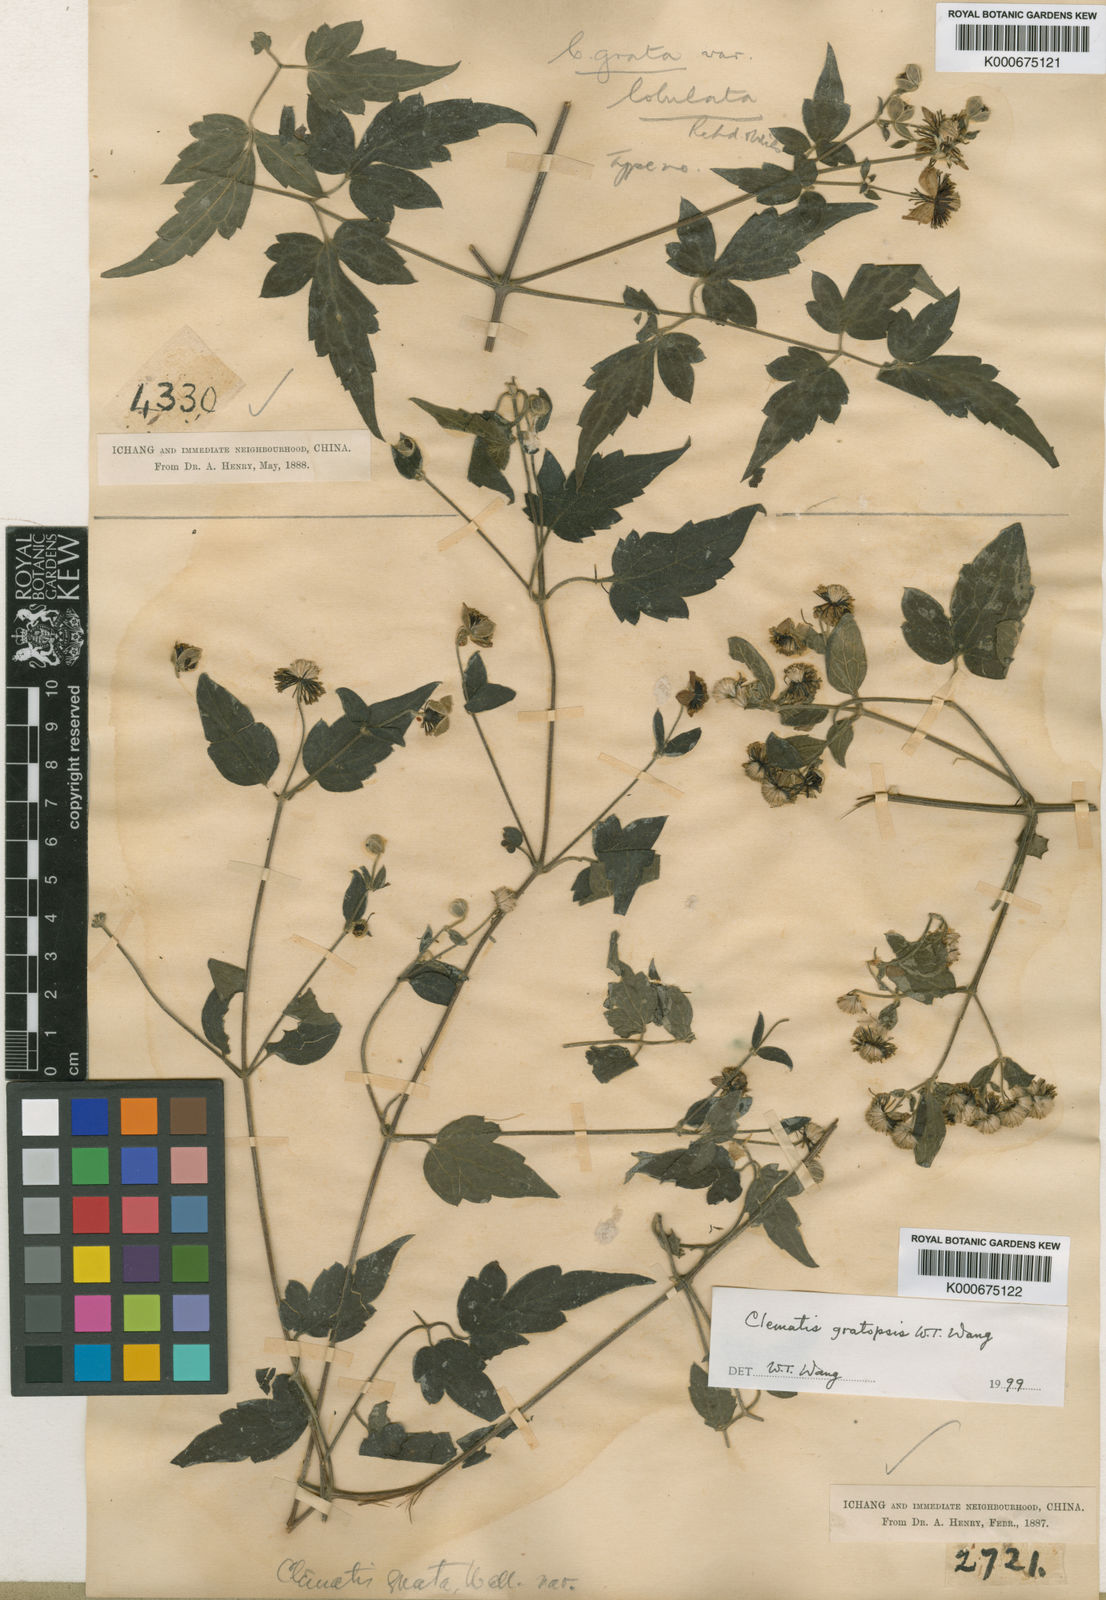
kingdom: Plantae
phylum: Tracheophyta
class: Magnoliopsida
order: Ranunculales
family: Ranunculaceae
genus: Clematis
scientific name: Clematis gratopsis
